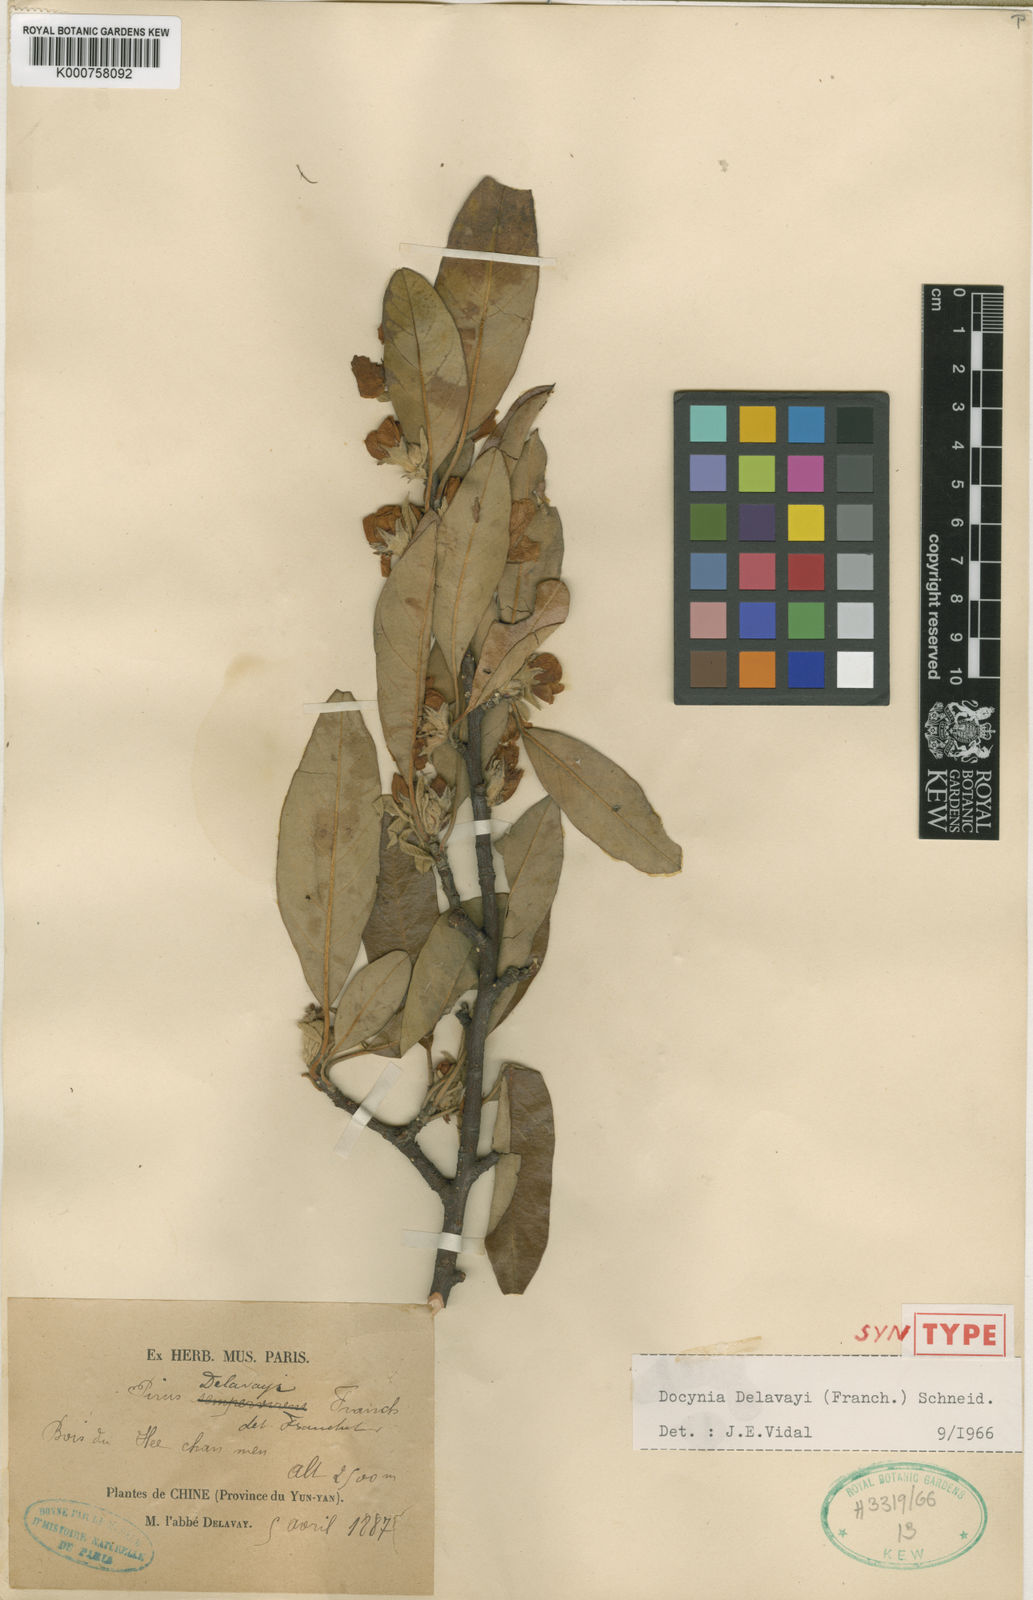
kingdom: Plantae
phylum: Tracheophyta
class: Magnoliopsida
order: Rosales
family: Rosaceae
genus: Malus
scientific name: Malus delavayi
